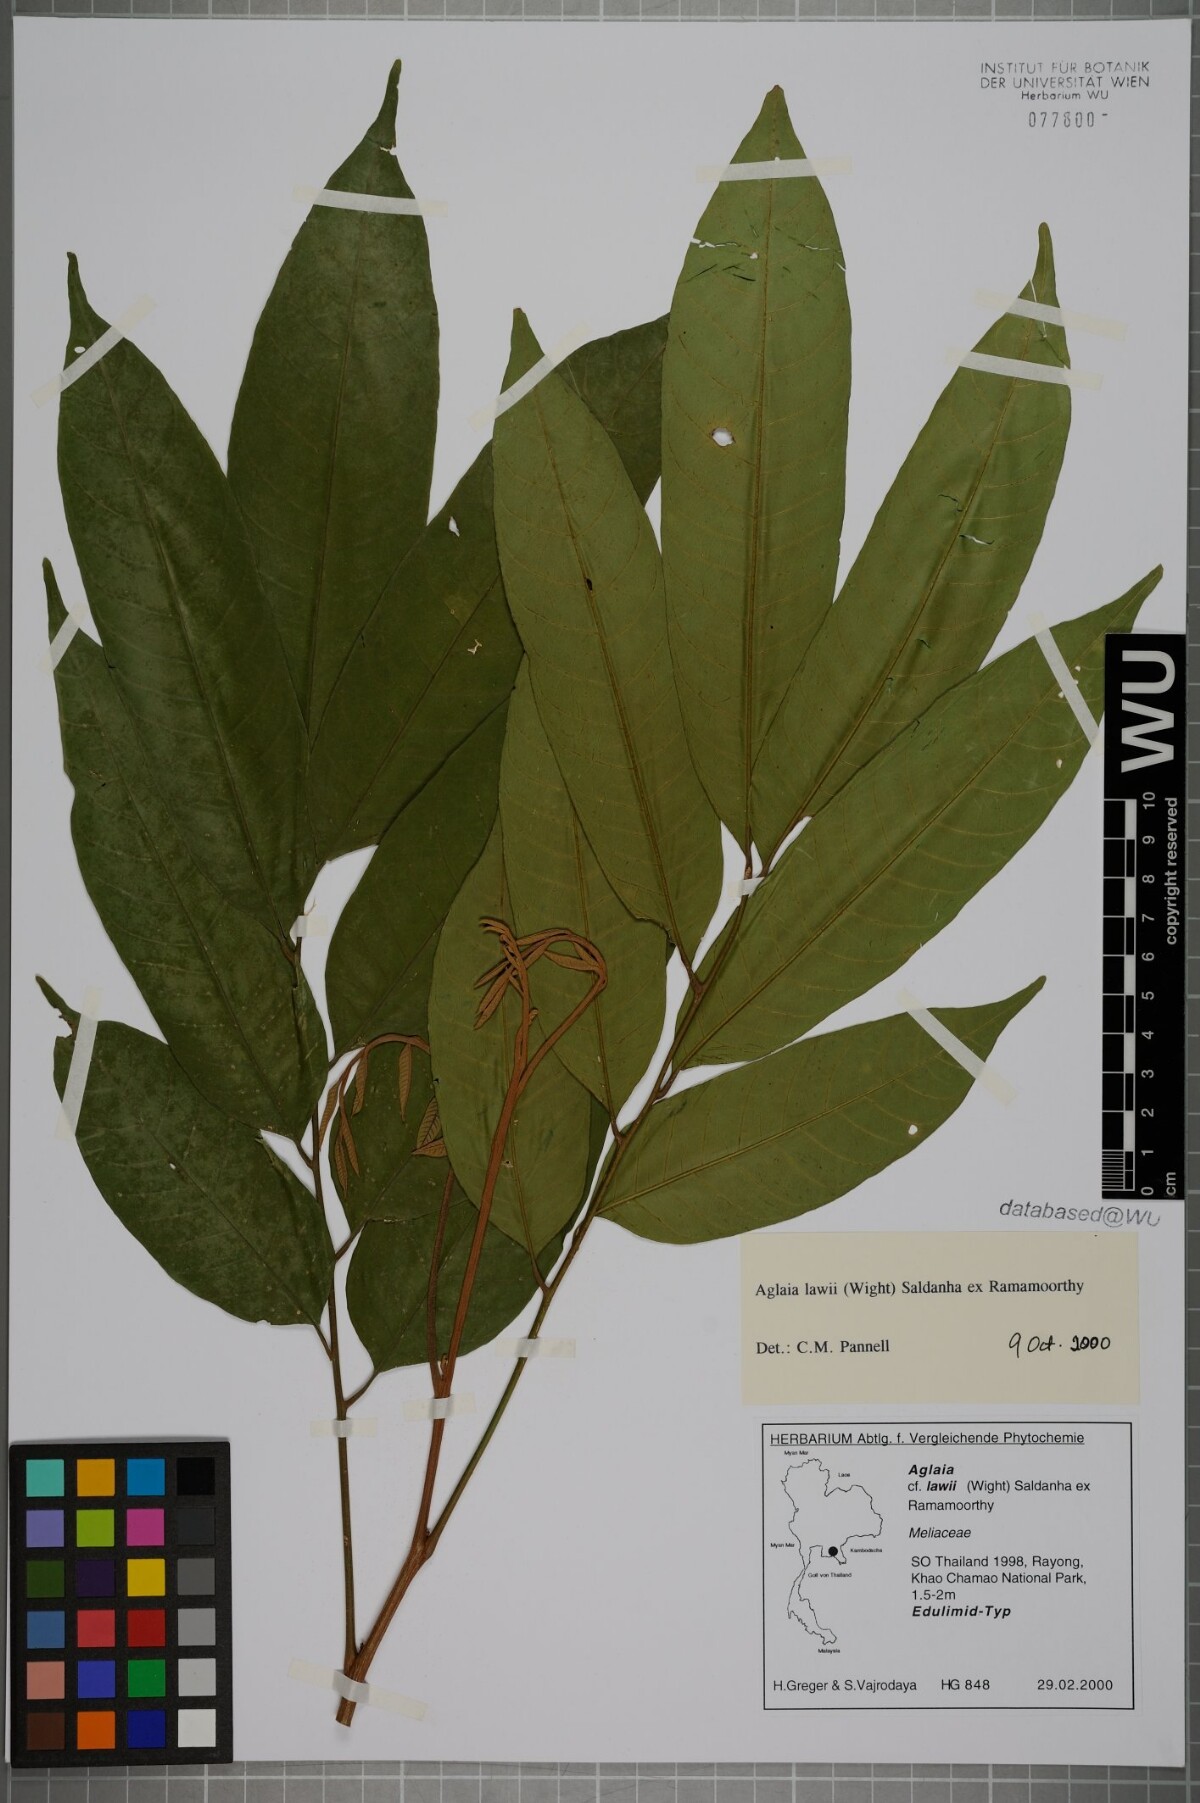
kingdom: Plantae
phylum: Tracheophyta
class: Magnoliopsida
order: Sapindales
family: Meliaceae
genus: Aglaia
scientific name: Aglaia lawii
